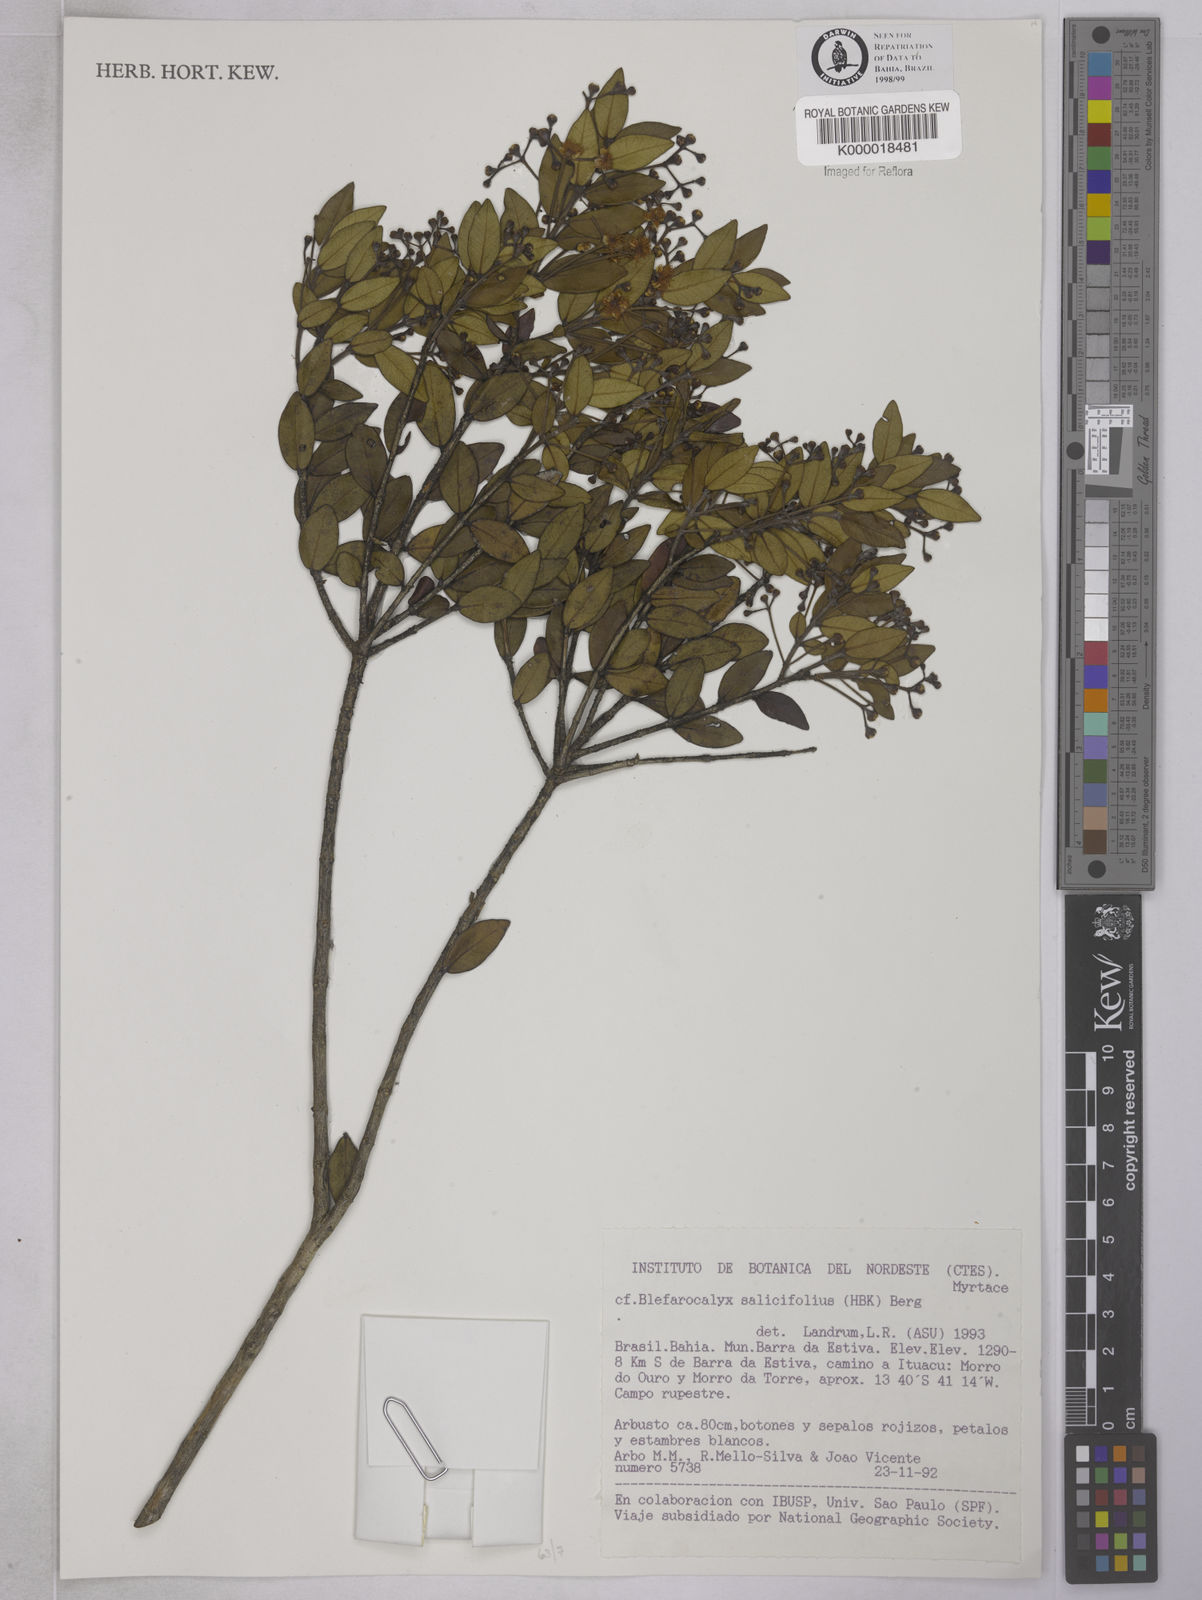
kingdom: Plantae
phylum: Tracheophyta
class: Magnoliopsida
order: Myrtales
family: Myrtaceae
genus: Blepharocalyx
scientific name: Blepharocalyx salicifolius
